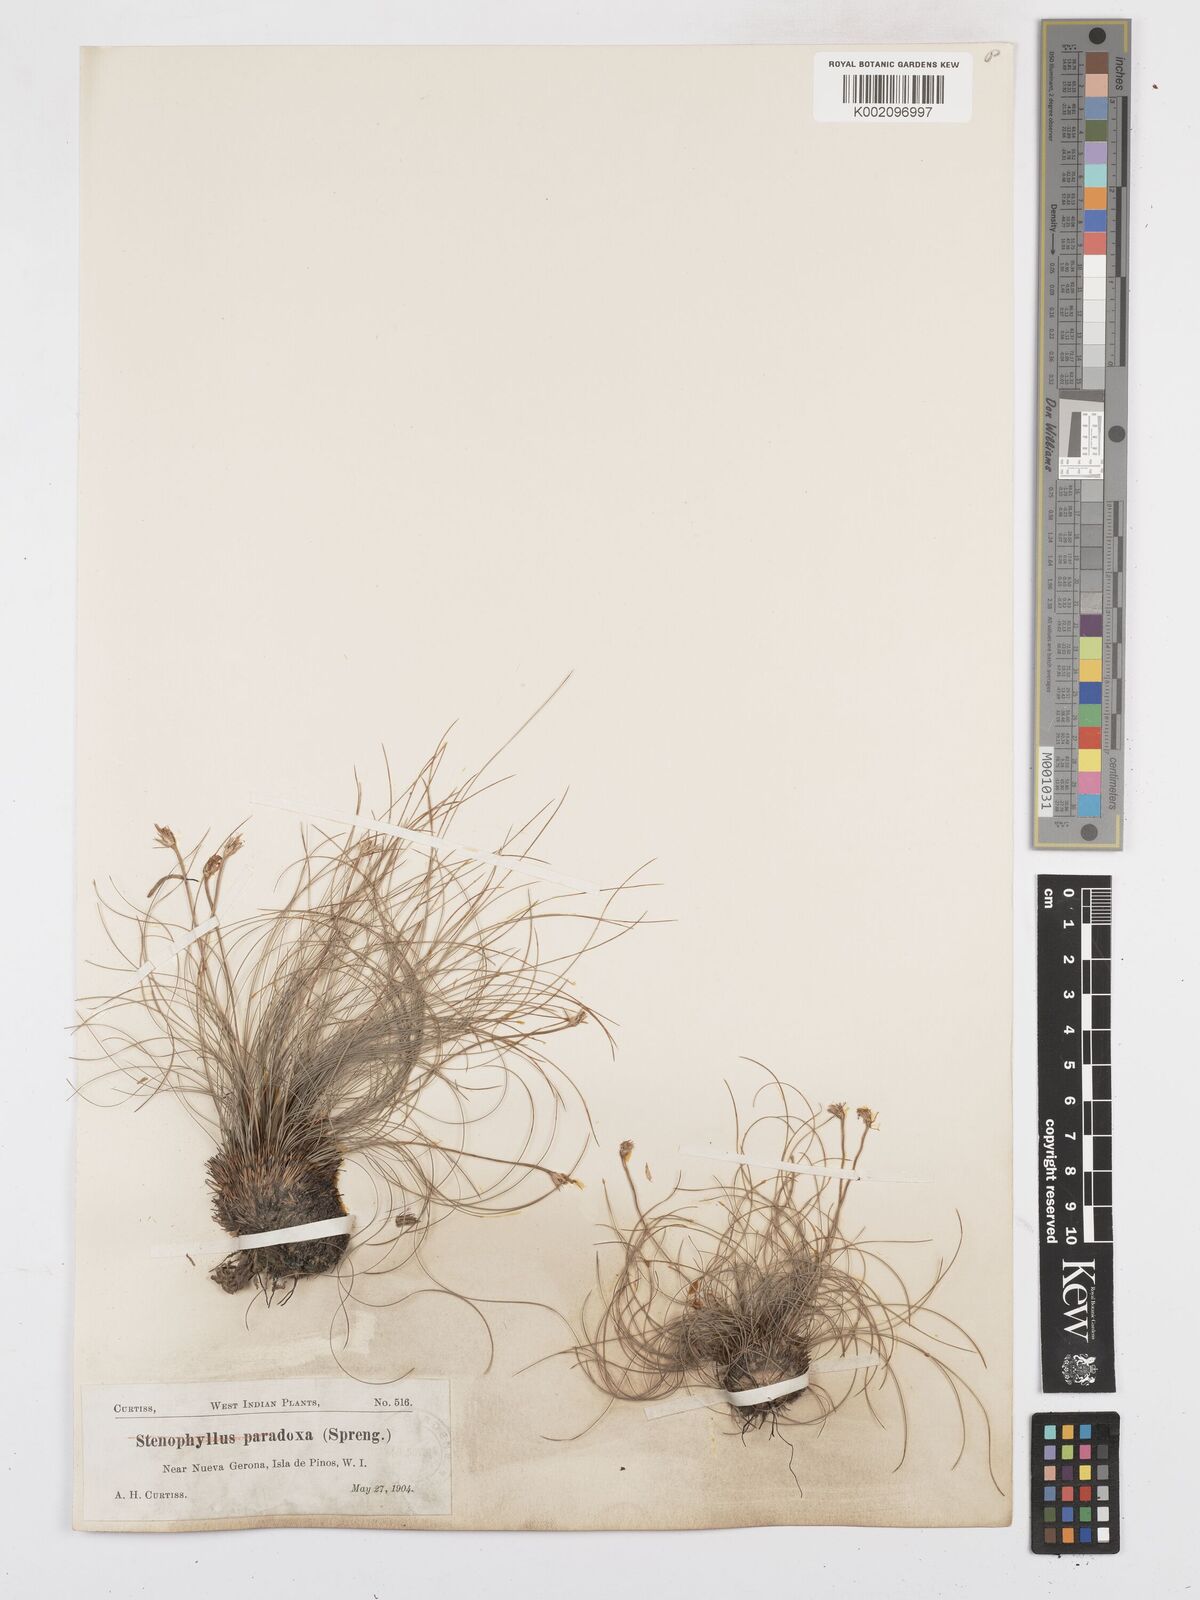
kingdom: Plantae
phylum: Tracheophyta
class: Liliopsida
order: Poales
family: Cyperaceae
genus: Bulbostylis
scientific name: Bulbostylis paradoxa
